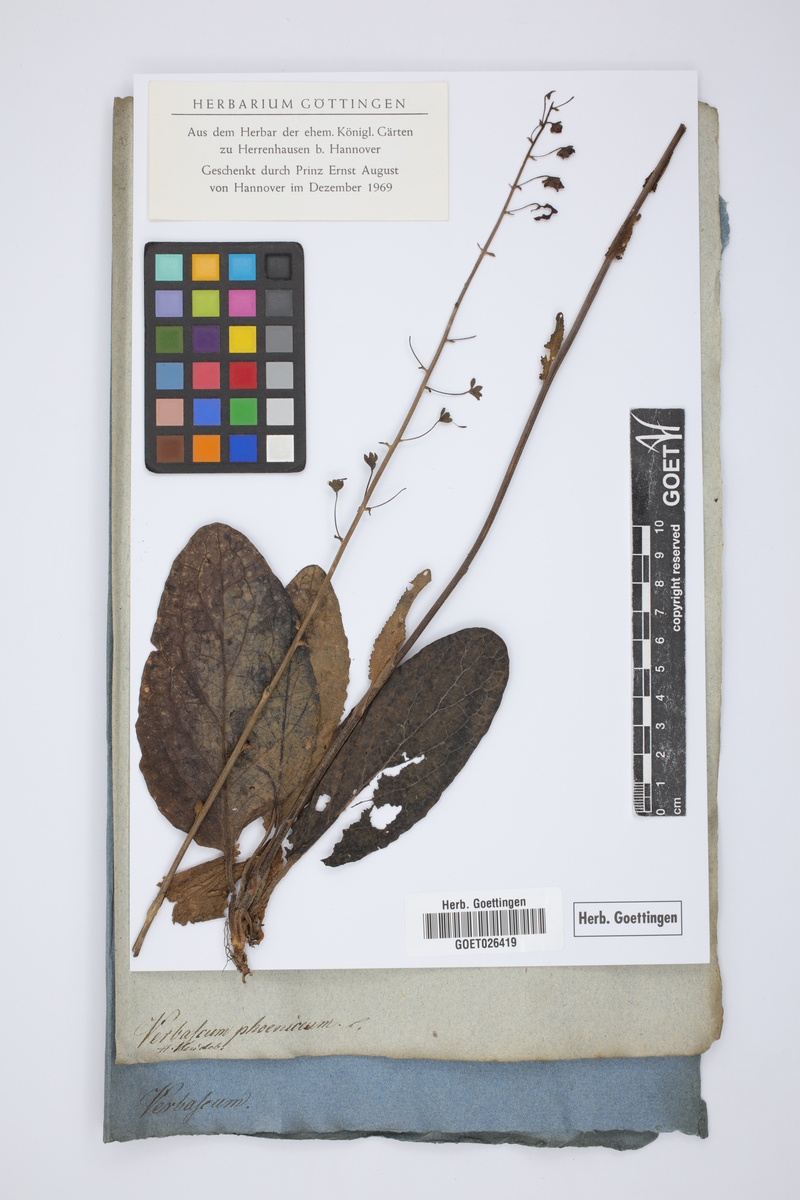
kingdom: Plantae
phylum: Tracheophyta
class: Magnoliopsida
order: Lamiales
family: Scrophulariaceae
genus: Verbascum
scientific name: Verbascum phoeniceum
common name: Purple mullein
